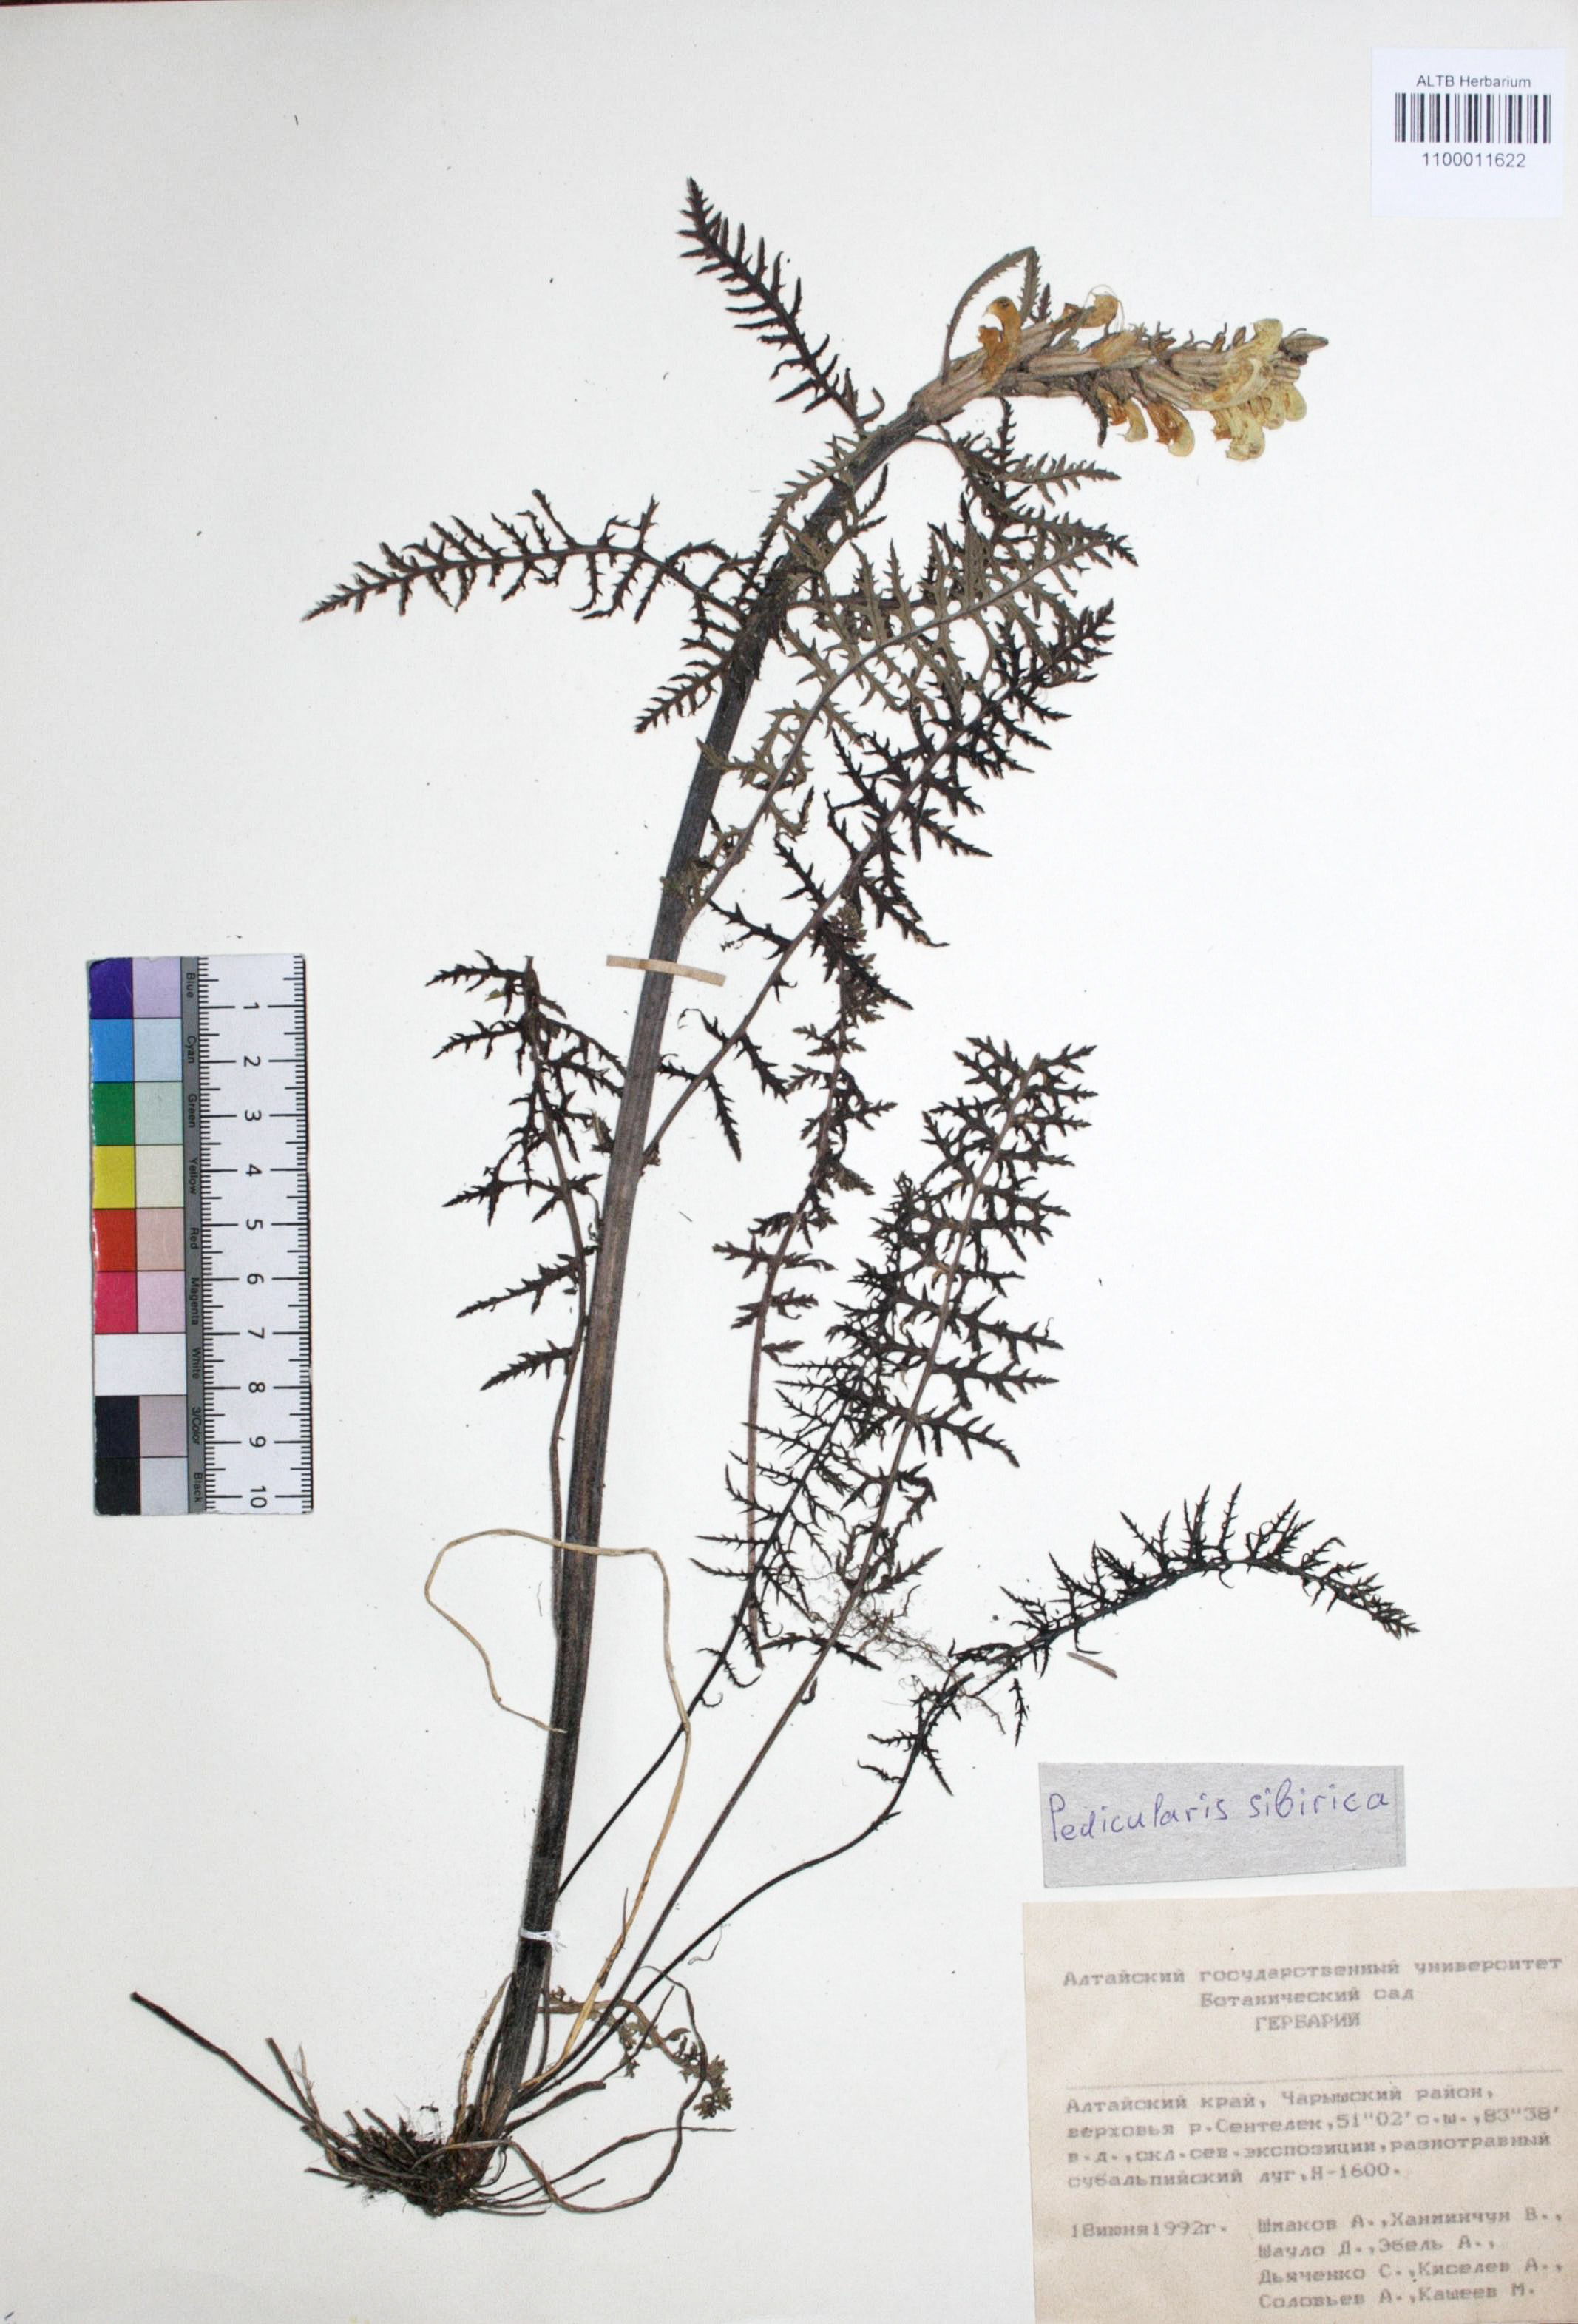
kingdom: Plantae
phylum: Tracheophyta
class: Magnoliopsida
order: Lamiales
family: Orobanchaceae
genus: Pedicularis
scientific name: Pedicularis sibirica
